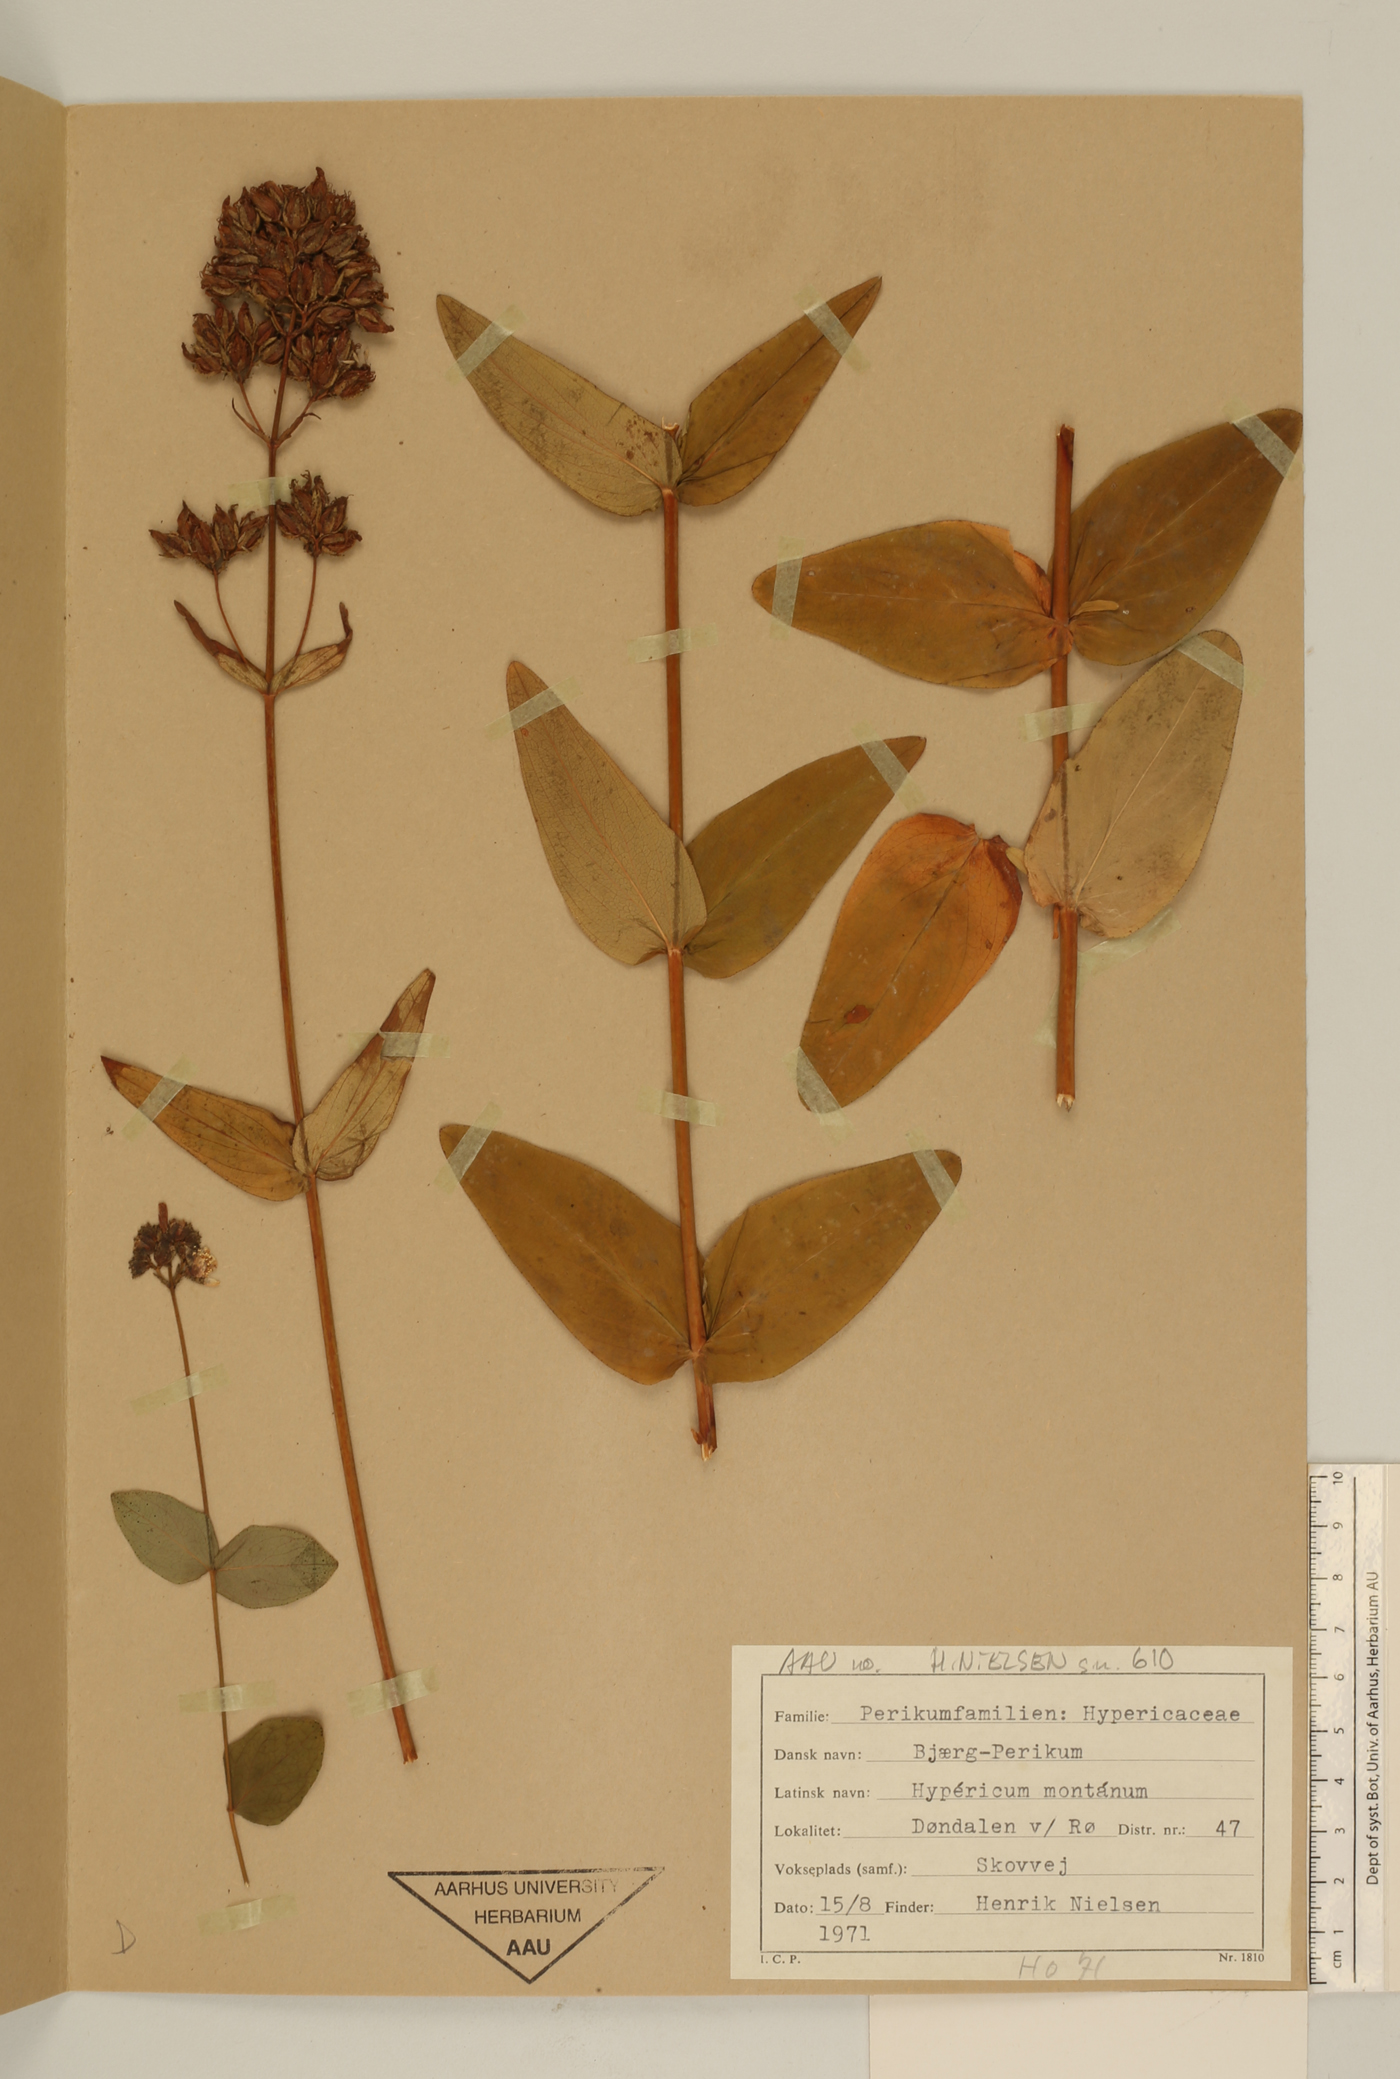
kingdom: Plantae
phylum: Tracheophyta
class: Magnoliopsida
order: Malpighiales
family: Hypericaceae
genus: Hypericum
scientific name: Hypericum montanum
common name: Pale st. john's-wort
